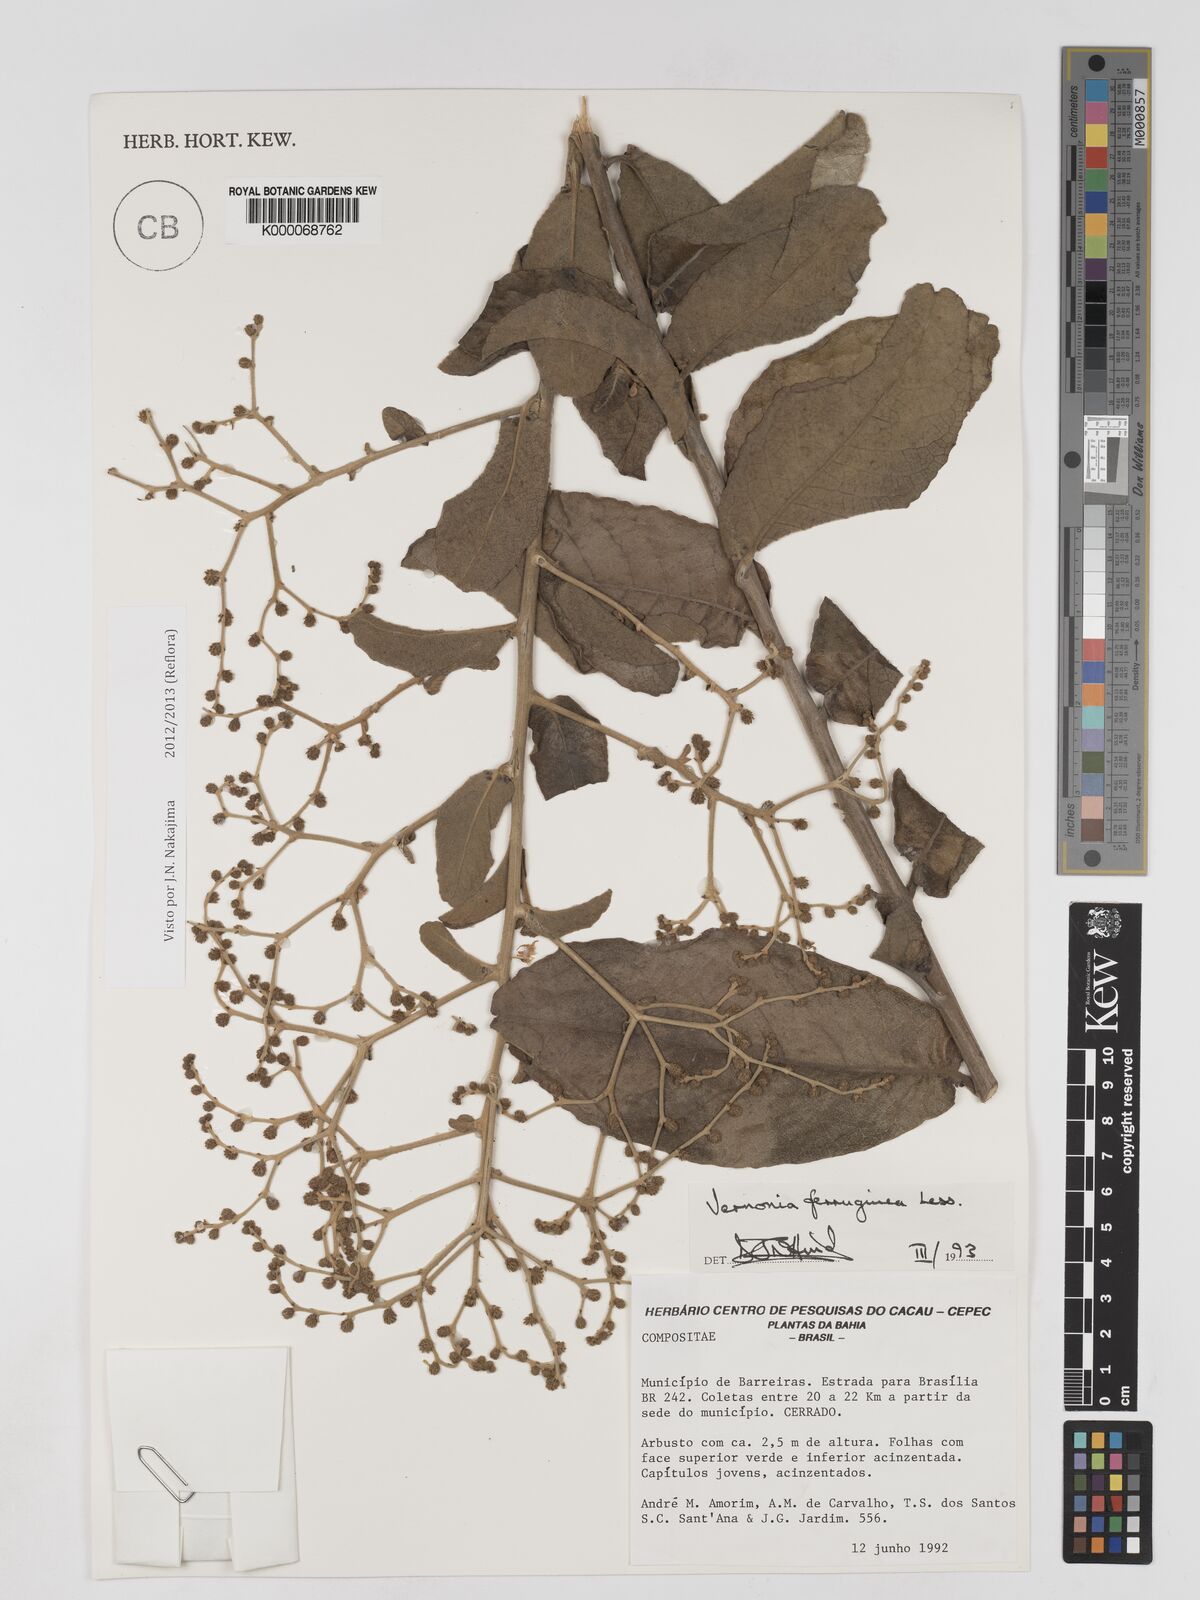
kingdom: Plantae
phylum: Tracheophyta
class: Magnoliopsida
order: Asterales
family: Asteraceae
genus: Vernonanthura
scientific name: Vernonanthura ferruginea
